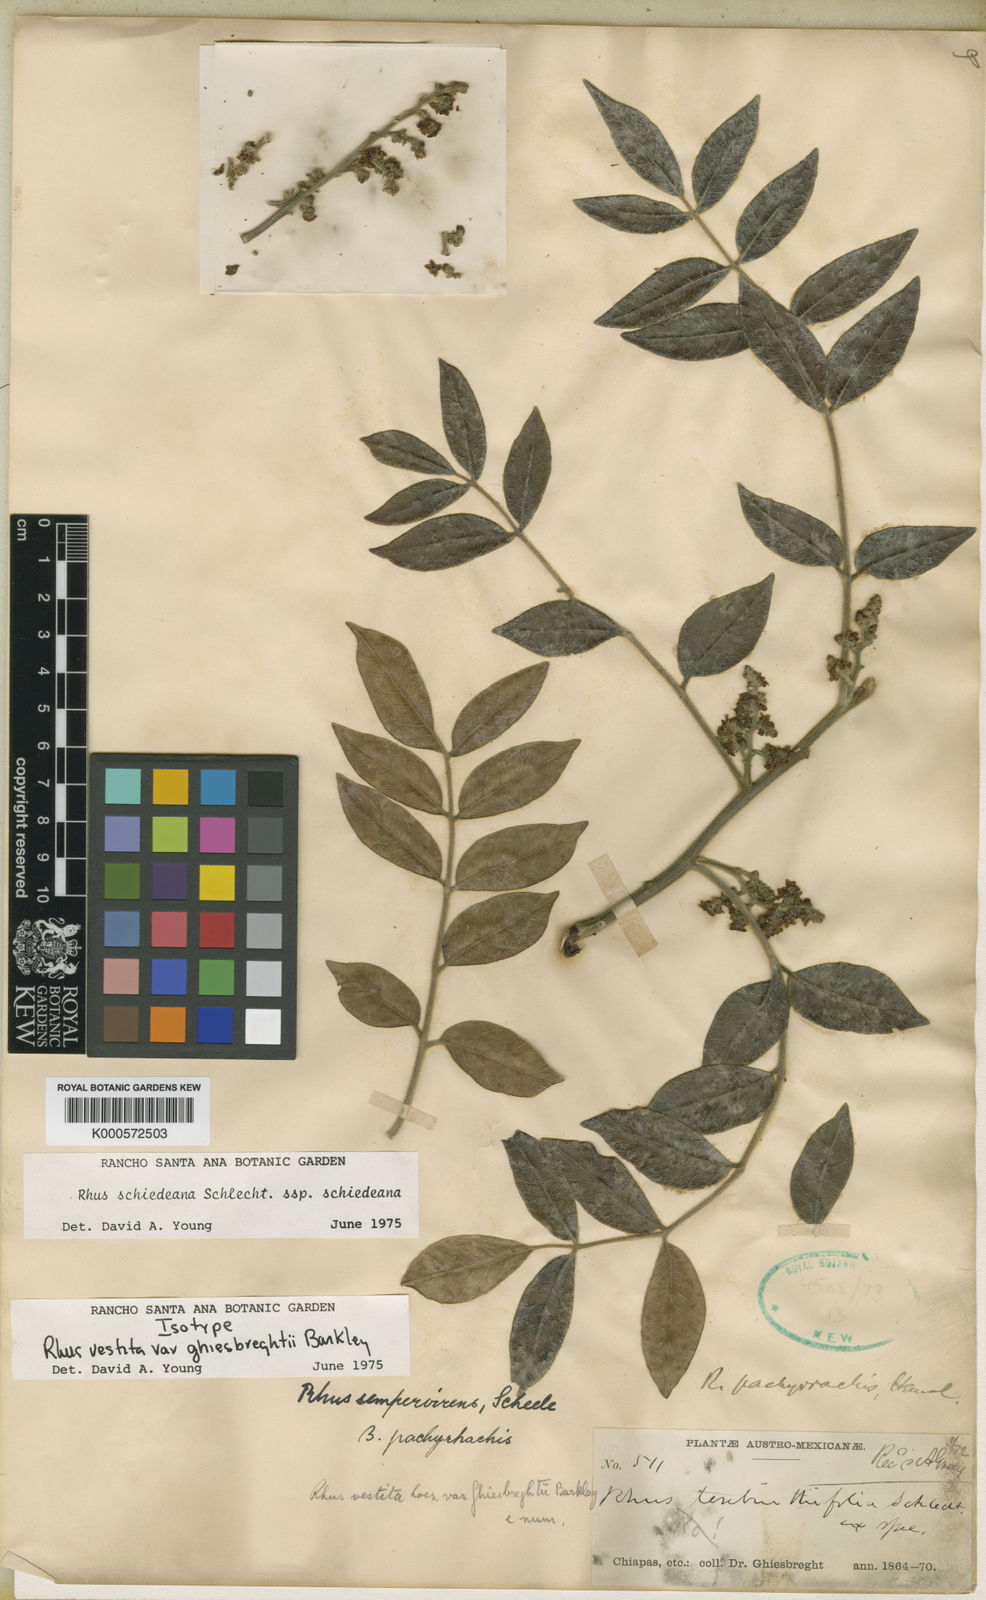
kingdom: Plantae
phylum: Tracheophyta
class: Magnoliopsida
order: Sapindales
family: Anacardiaceae
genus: Rhus
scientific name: Rhus vestita
